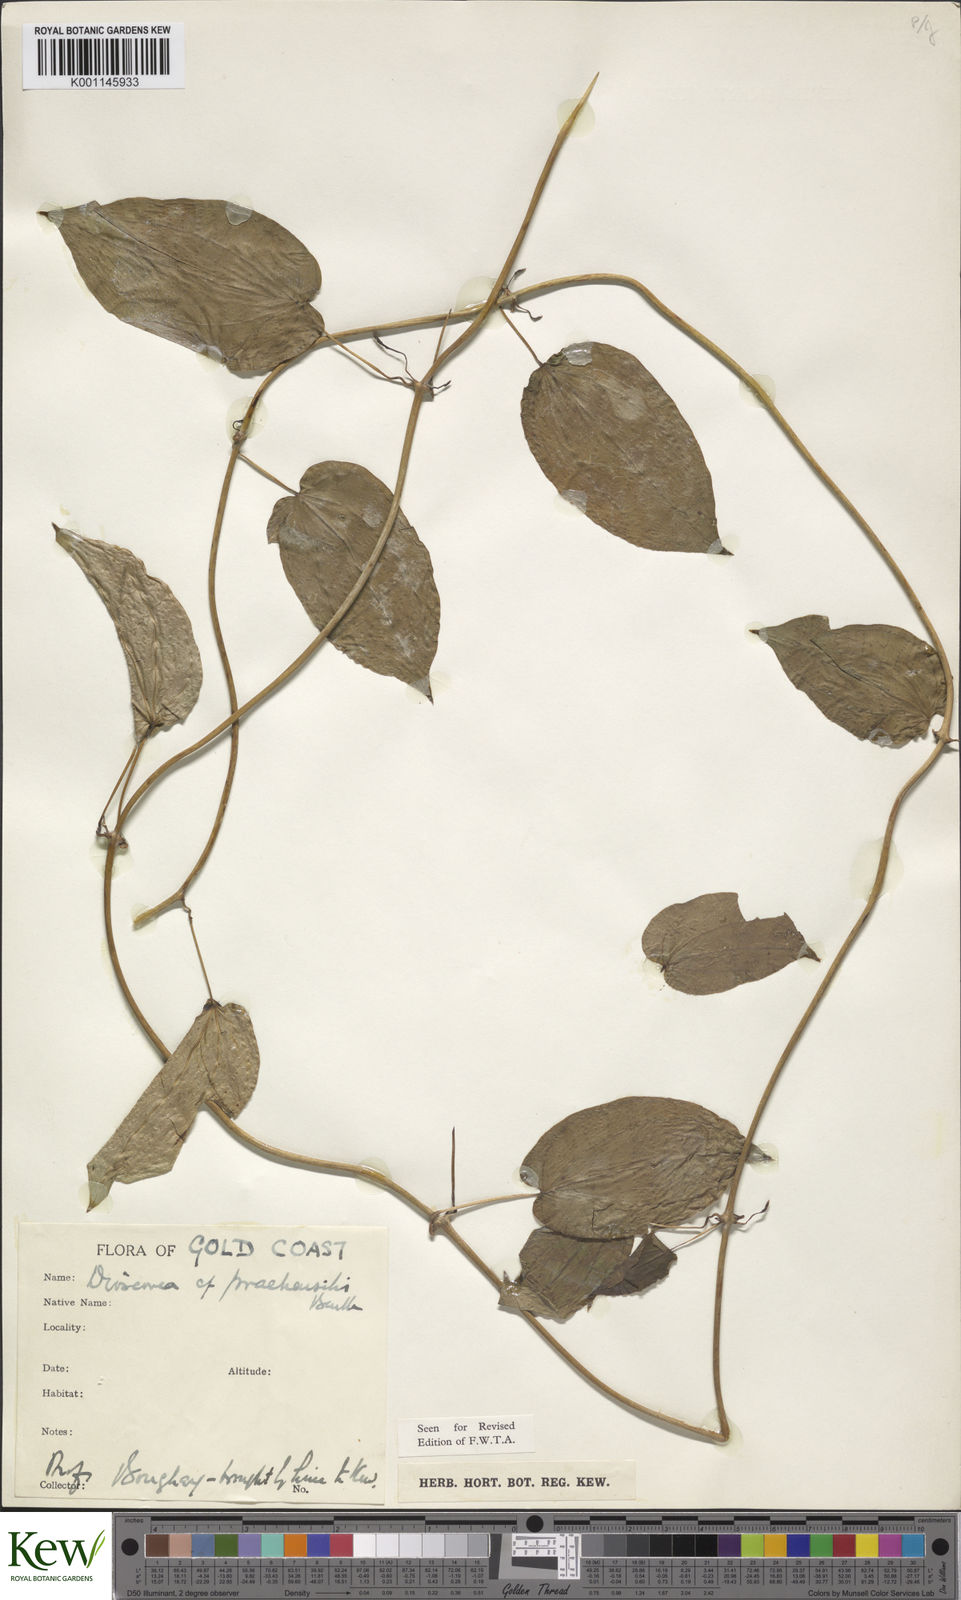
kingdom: Plantae
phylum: Tracheophyta
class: Liliopsida
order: Dioscoreales
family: Dioscoreaceae
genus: Dioscorea
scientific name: Dioscorea praehensilis
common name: Bush yam
